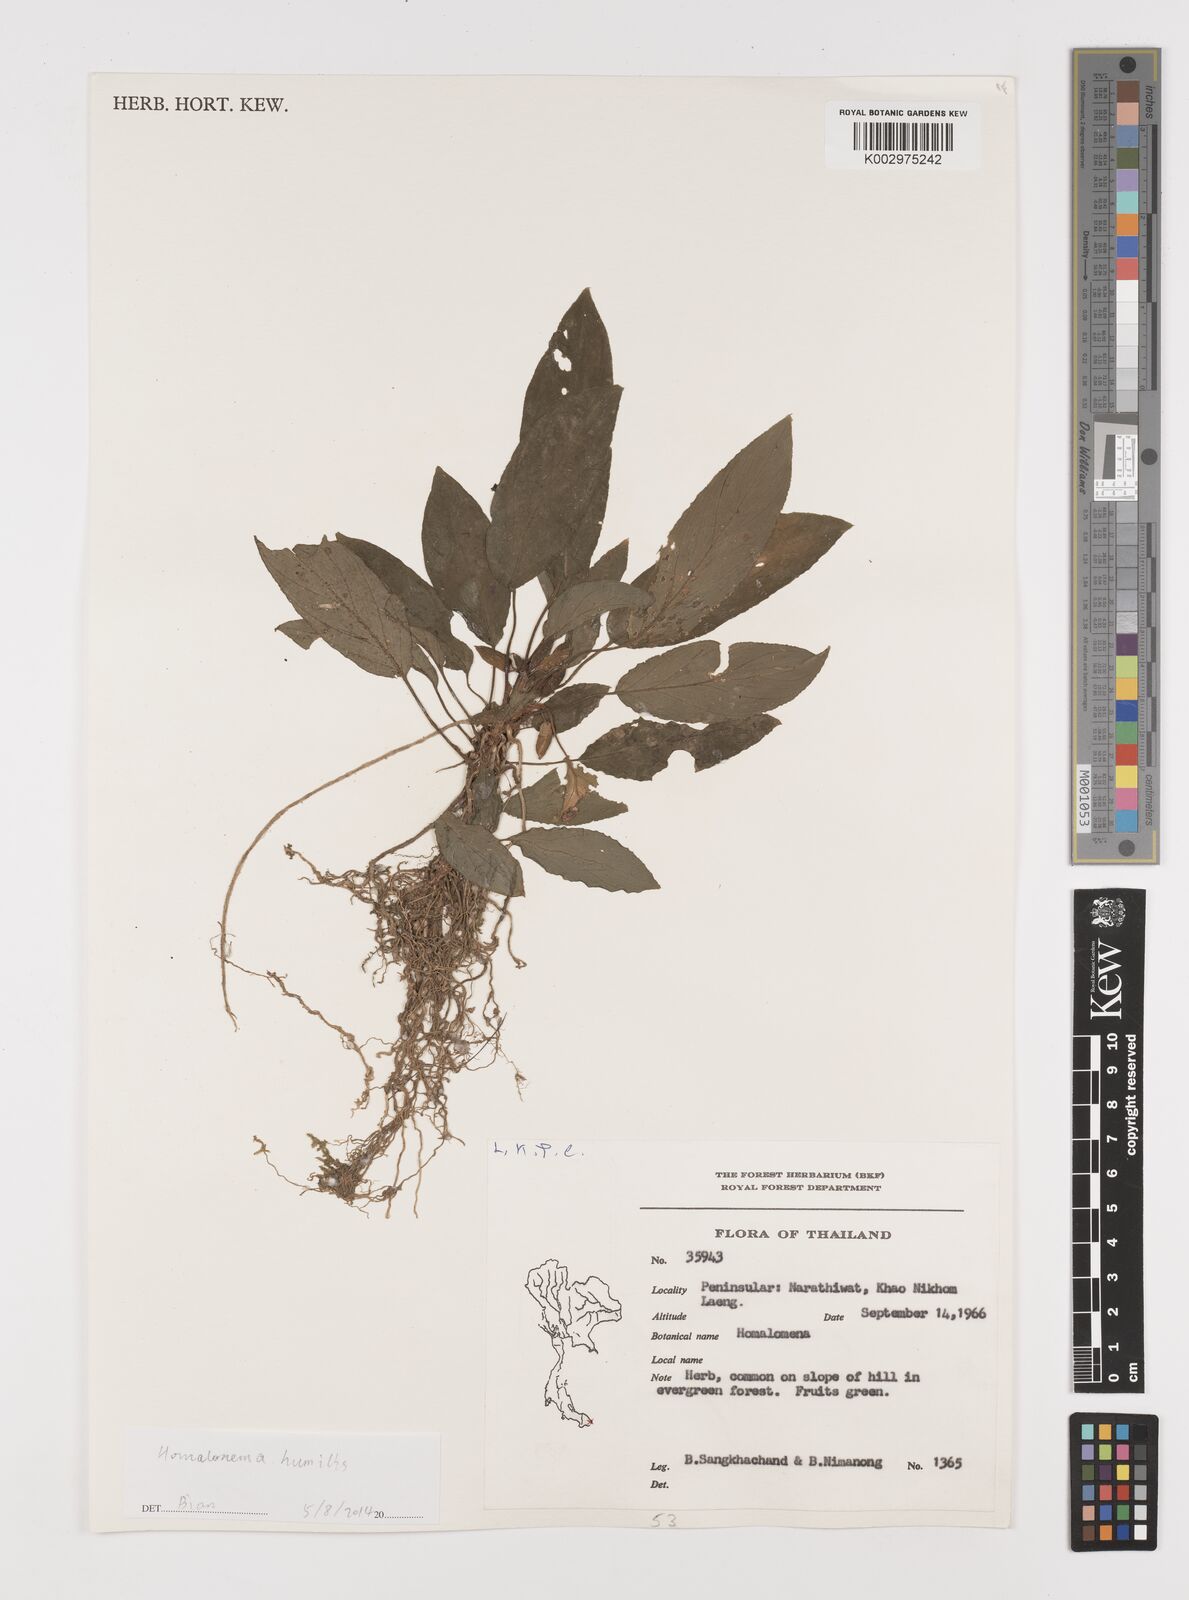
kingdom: Plantae
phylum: Tracheophyta
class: Liliopsida
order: Alismatales
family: Araceae
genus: Homalomena
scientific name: Homalomena humilis
